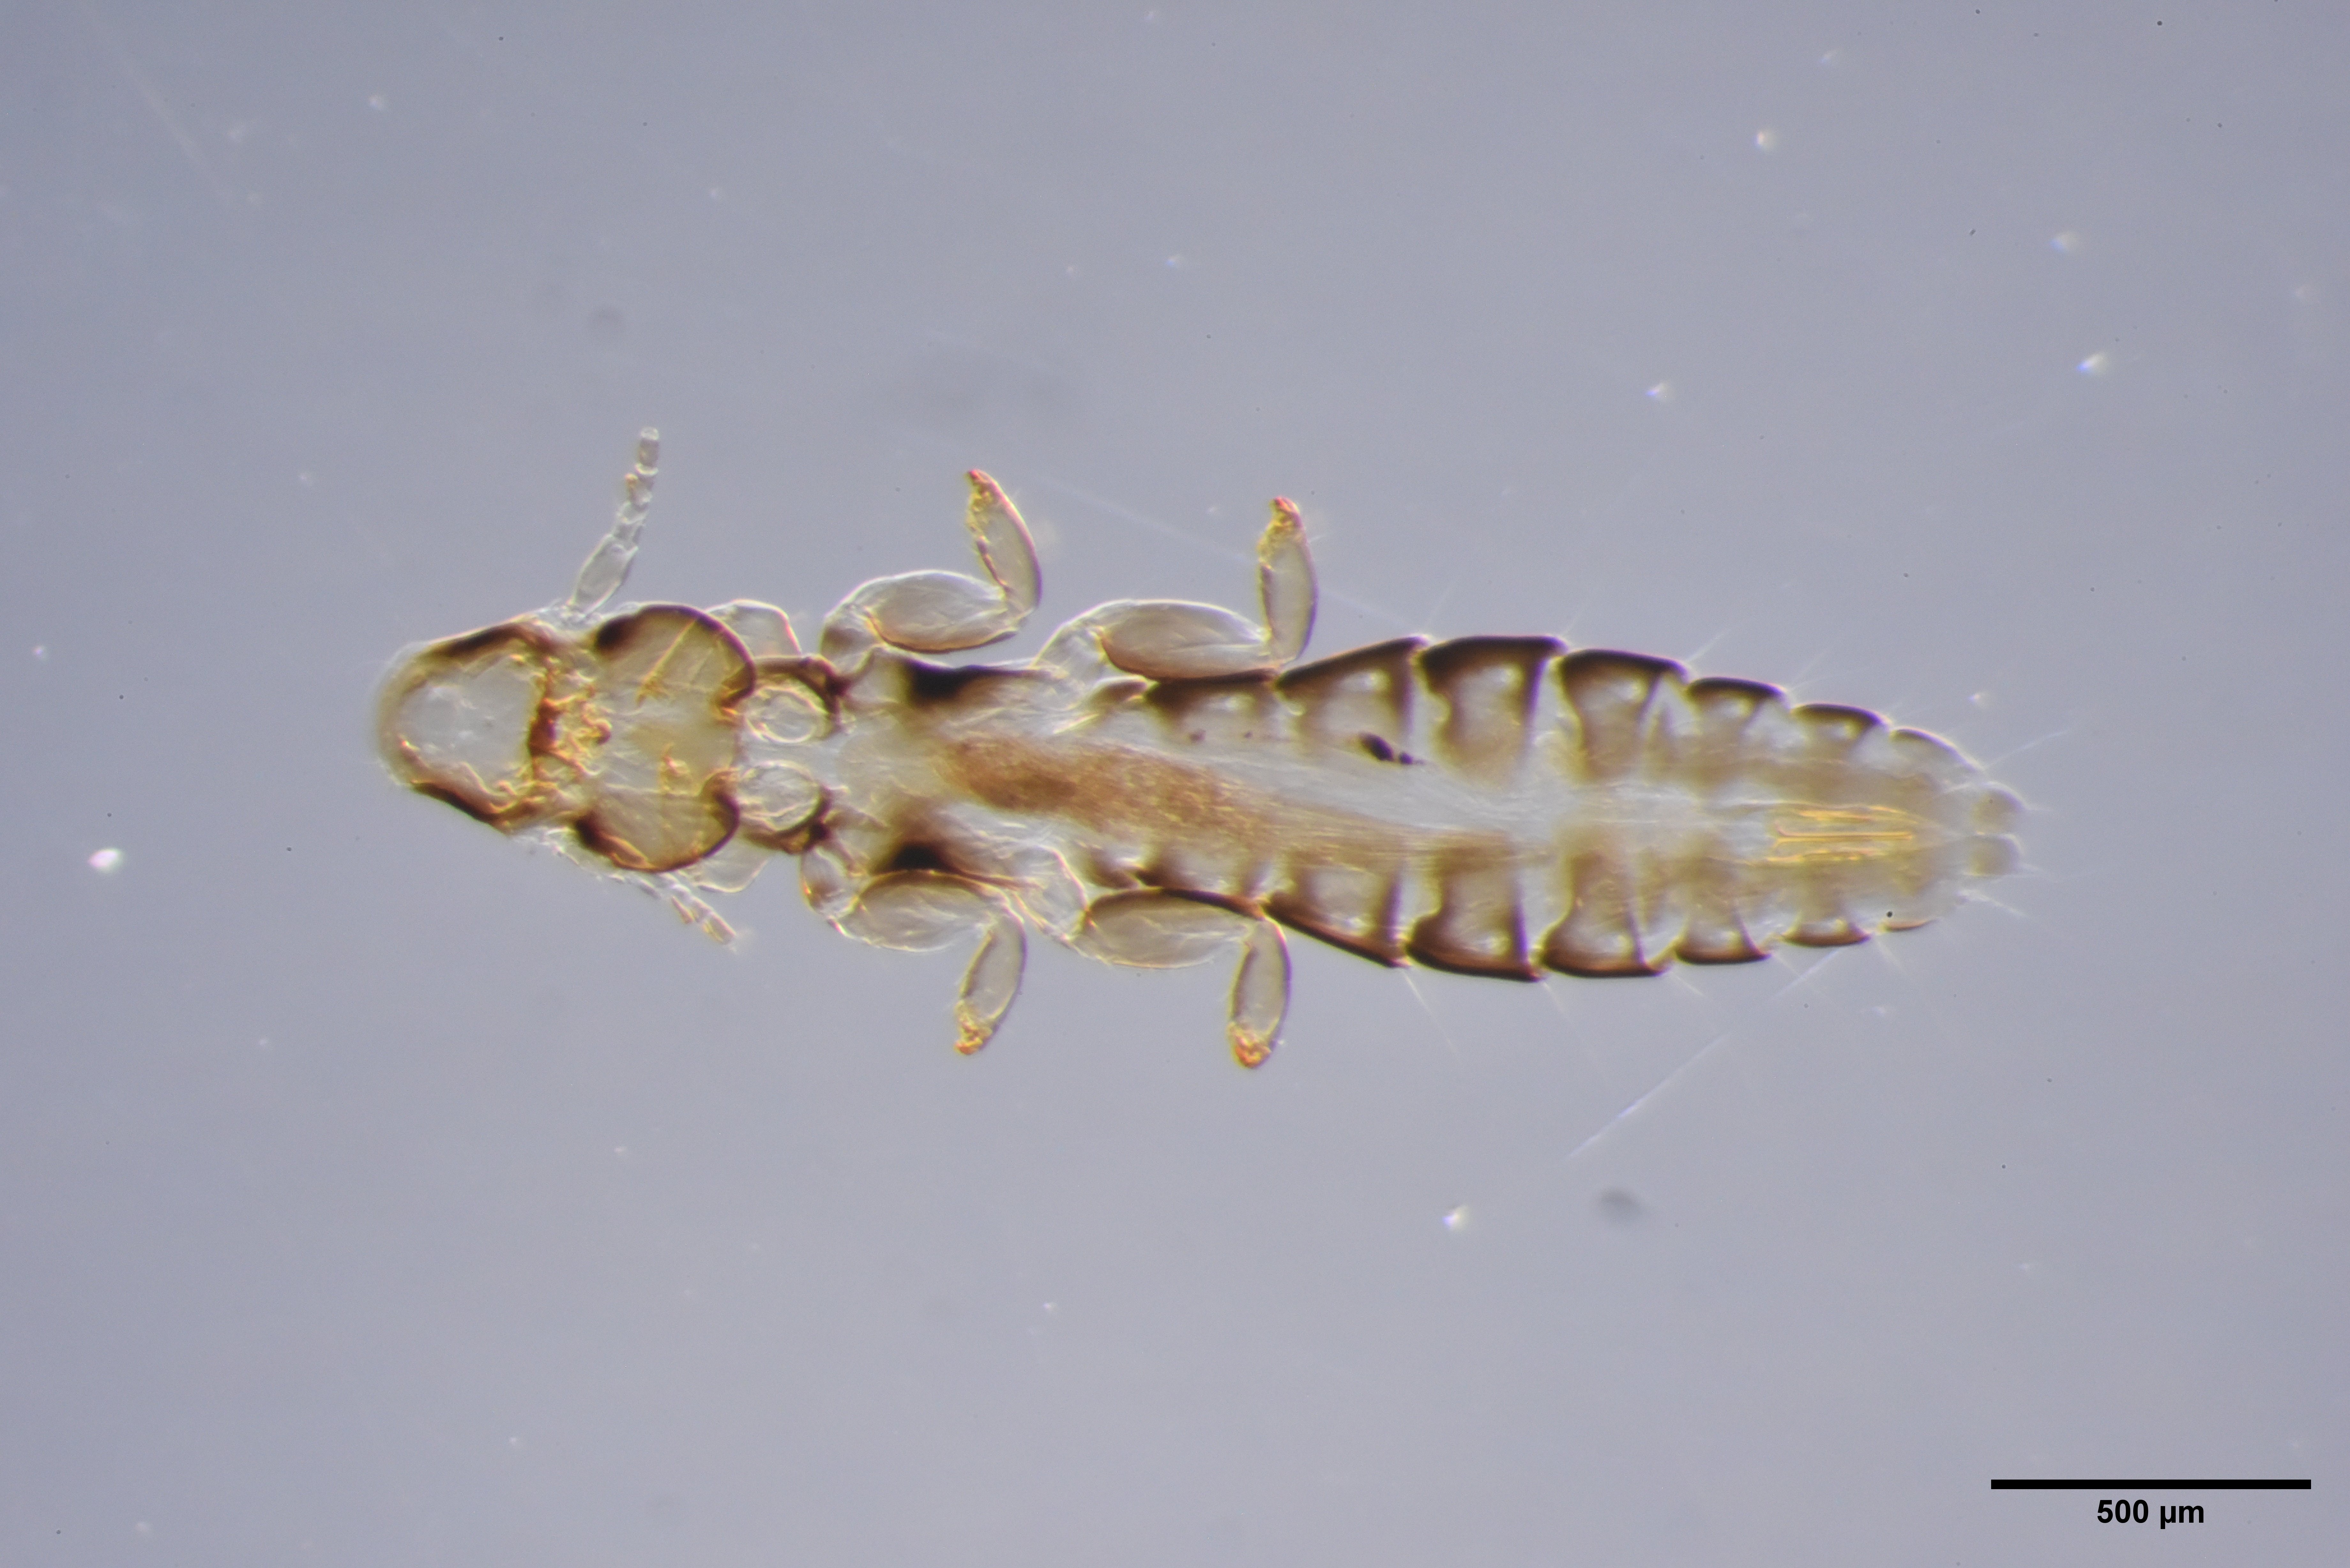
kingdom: Animalia
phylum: Arthropoda
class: Insecta
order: Psocodea
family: Philopteridae
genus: Anaticola
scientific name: Anaticola crassicorne
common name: Louse
